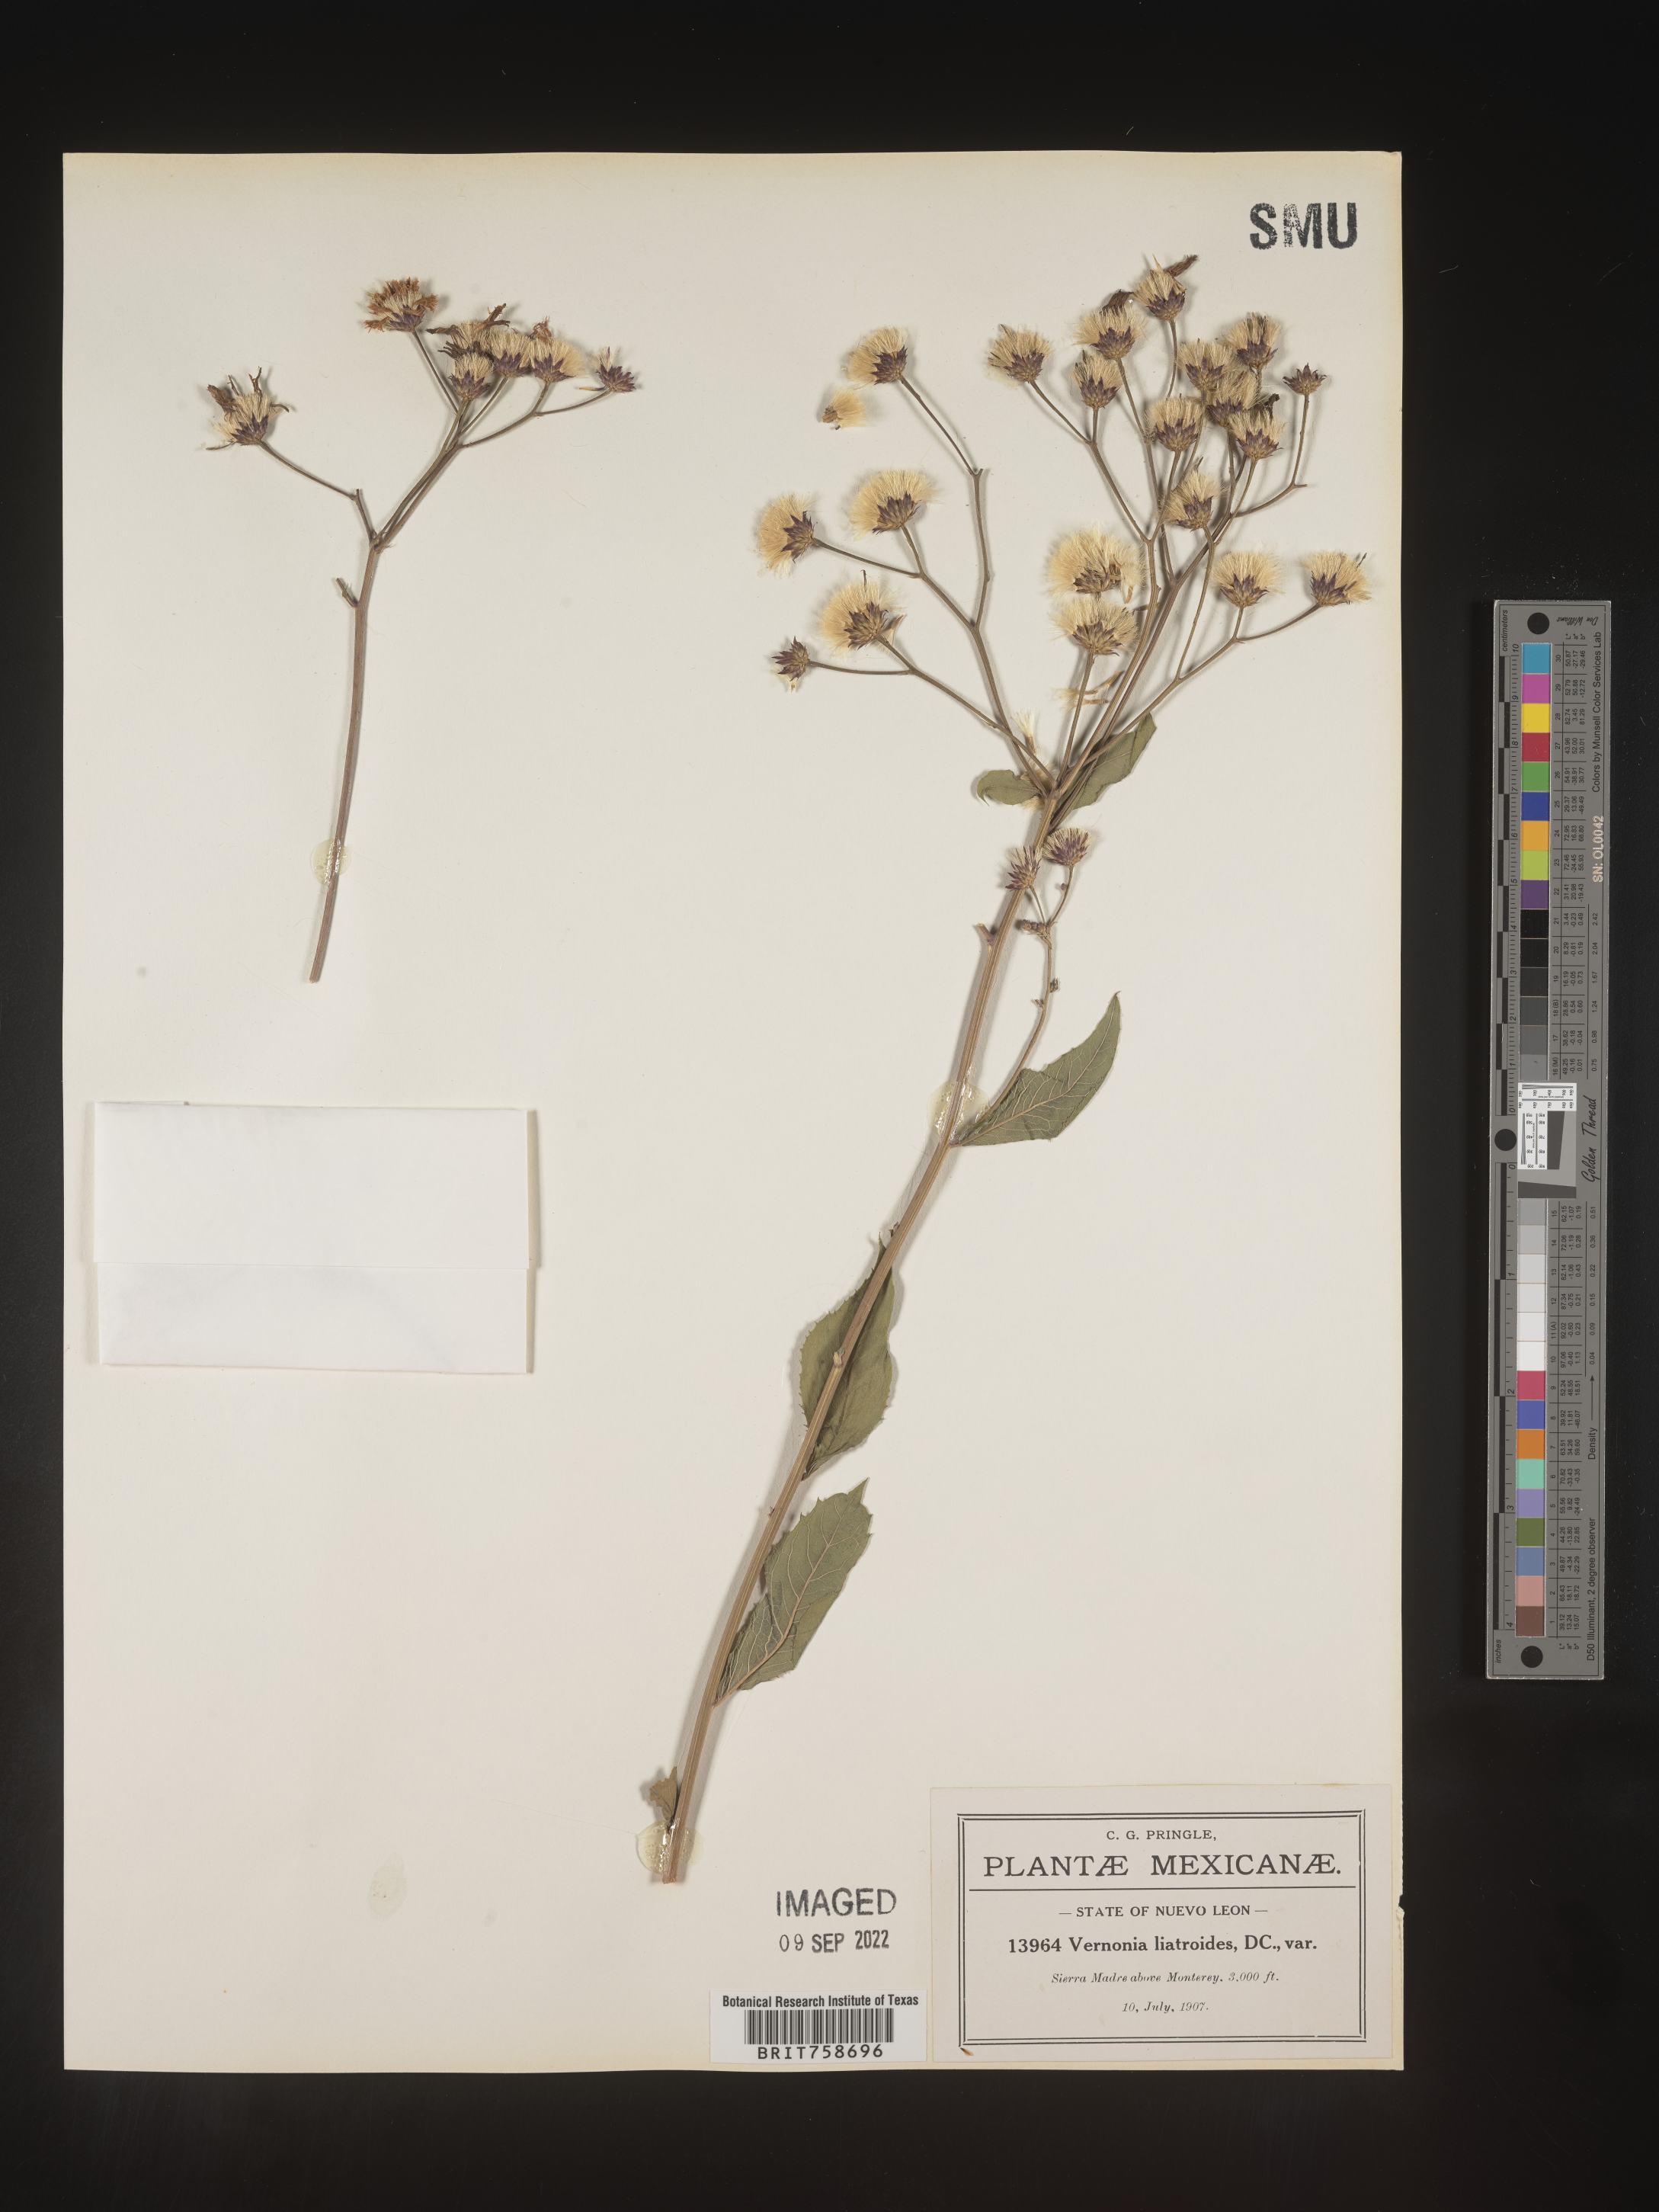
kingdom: Plantae
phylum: Tracheophyta
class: Magnoliopsida
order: Asterales
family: Asteraceae
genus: Vernonia
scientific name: Vernonia
